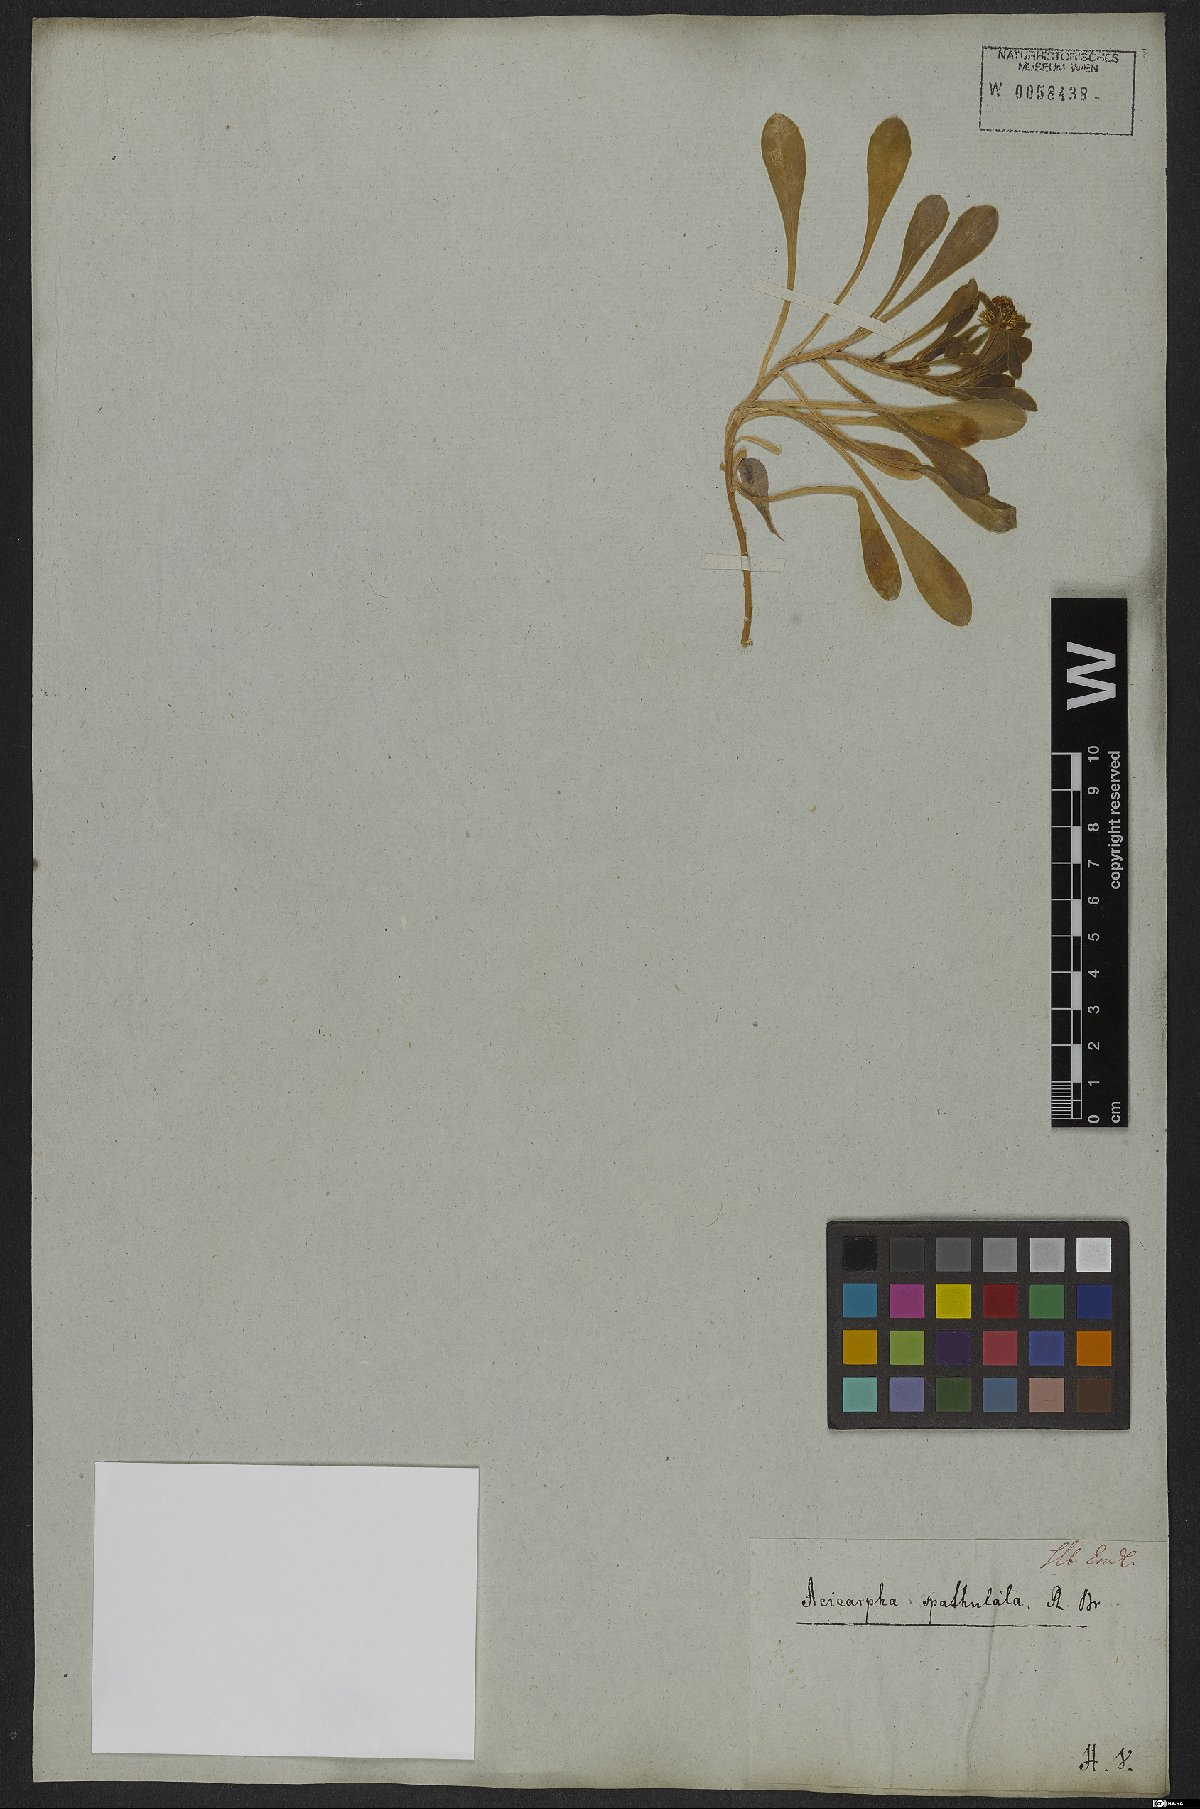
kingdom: Plantae
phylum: Tracheophyta
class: Magnoliopsida
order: Asterales
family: Calyceraceae
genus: Acicarpha
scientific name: Acicarpha spathulata
